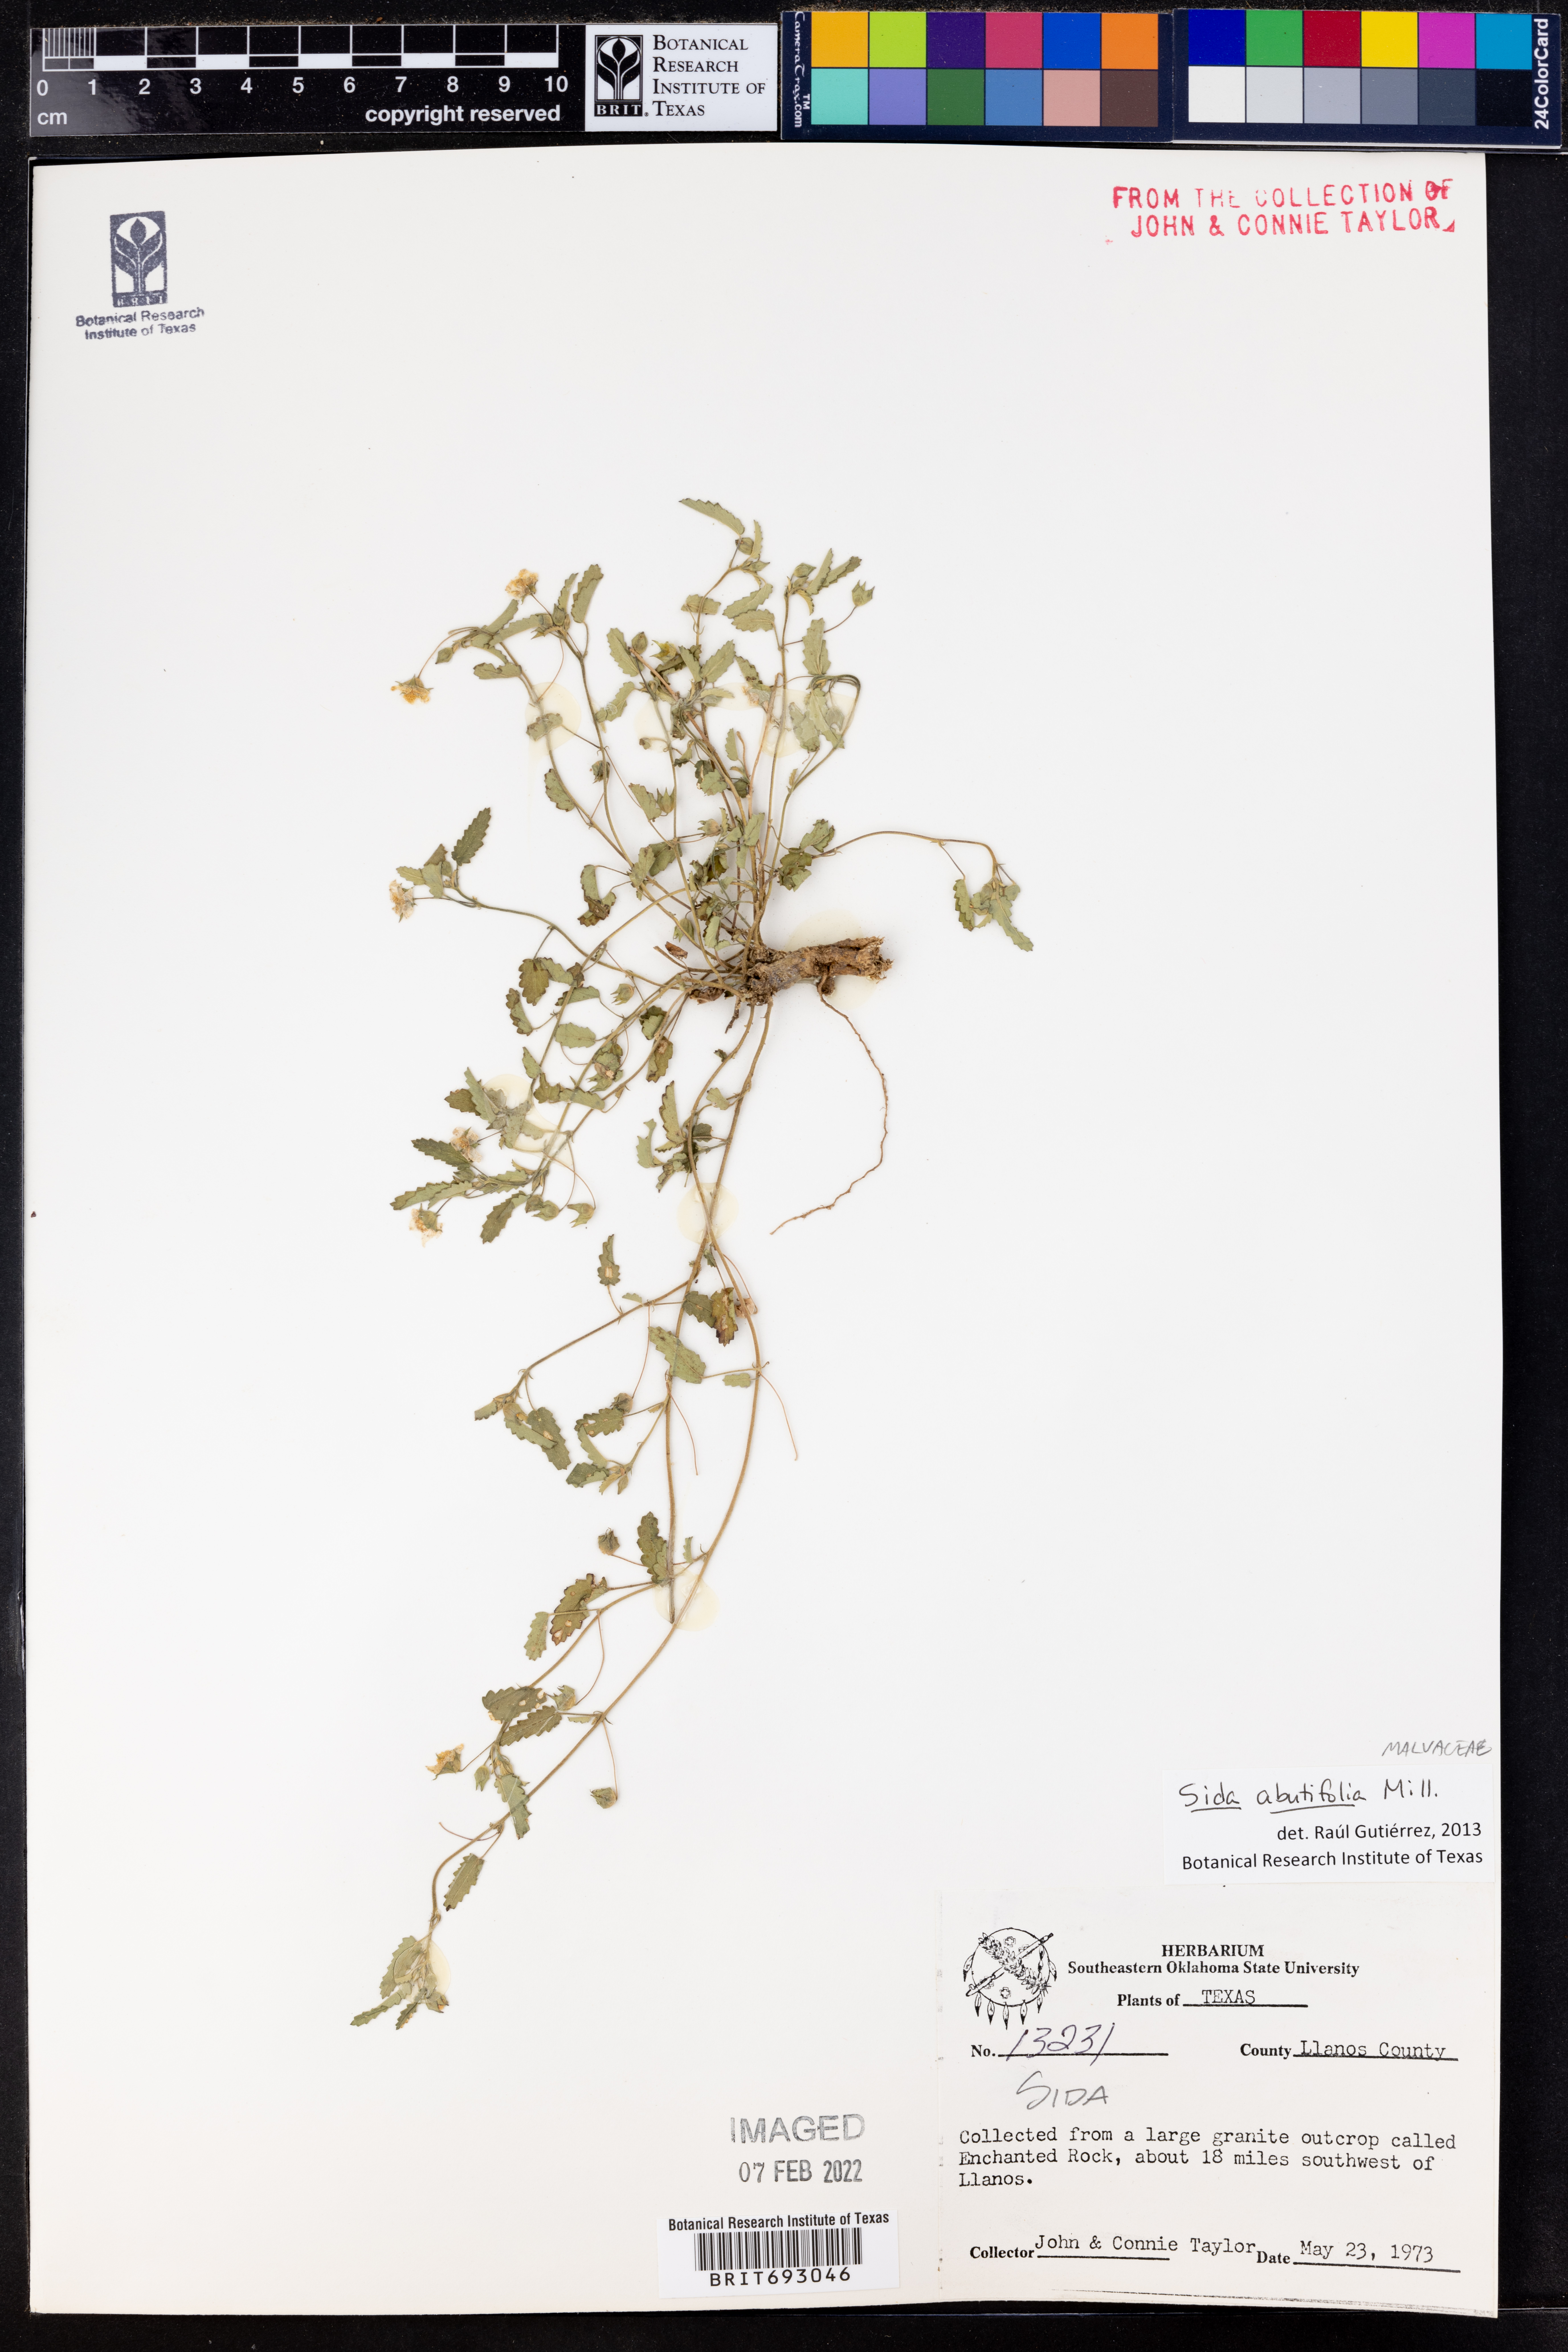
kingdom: Plantae
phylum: Tracheophyta
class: Magnoliopsida
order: Malvales
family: Malvaceae
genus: Sida
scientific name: Sida abutifolia
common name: Spreading fantails
